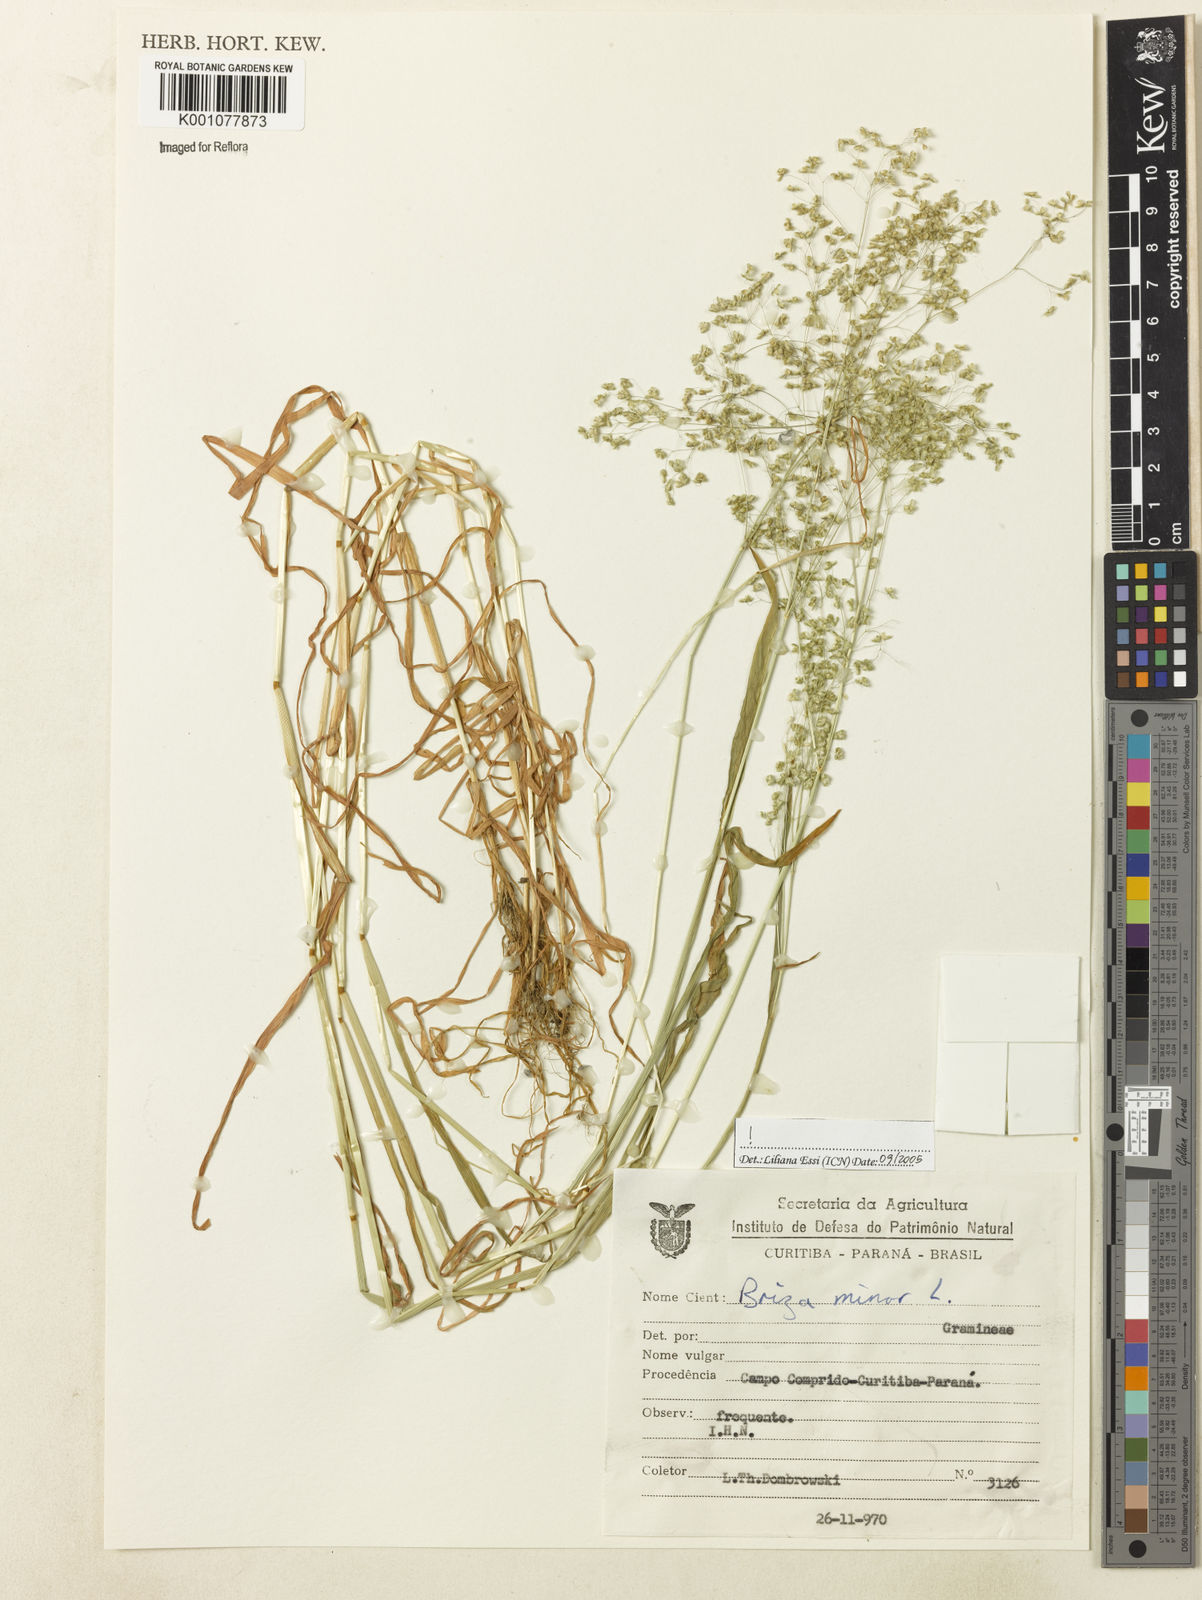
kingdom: Plantae
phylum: Tracheophyta
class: Liliopsida
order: Poales
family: Poaceae
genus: Briza
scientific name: Briza minor
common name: Lesser quaking-grass
